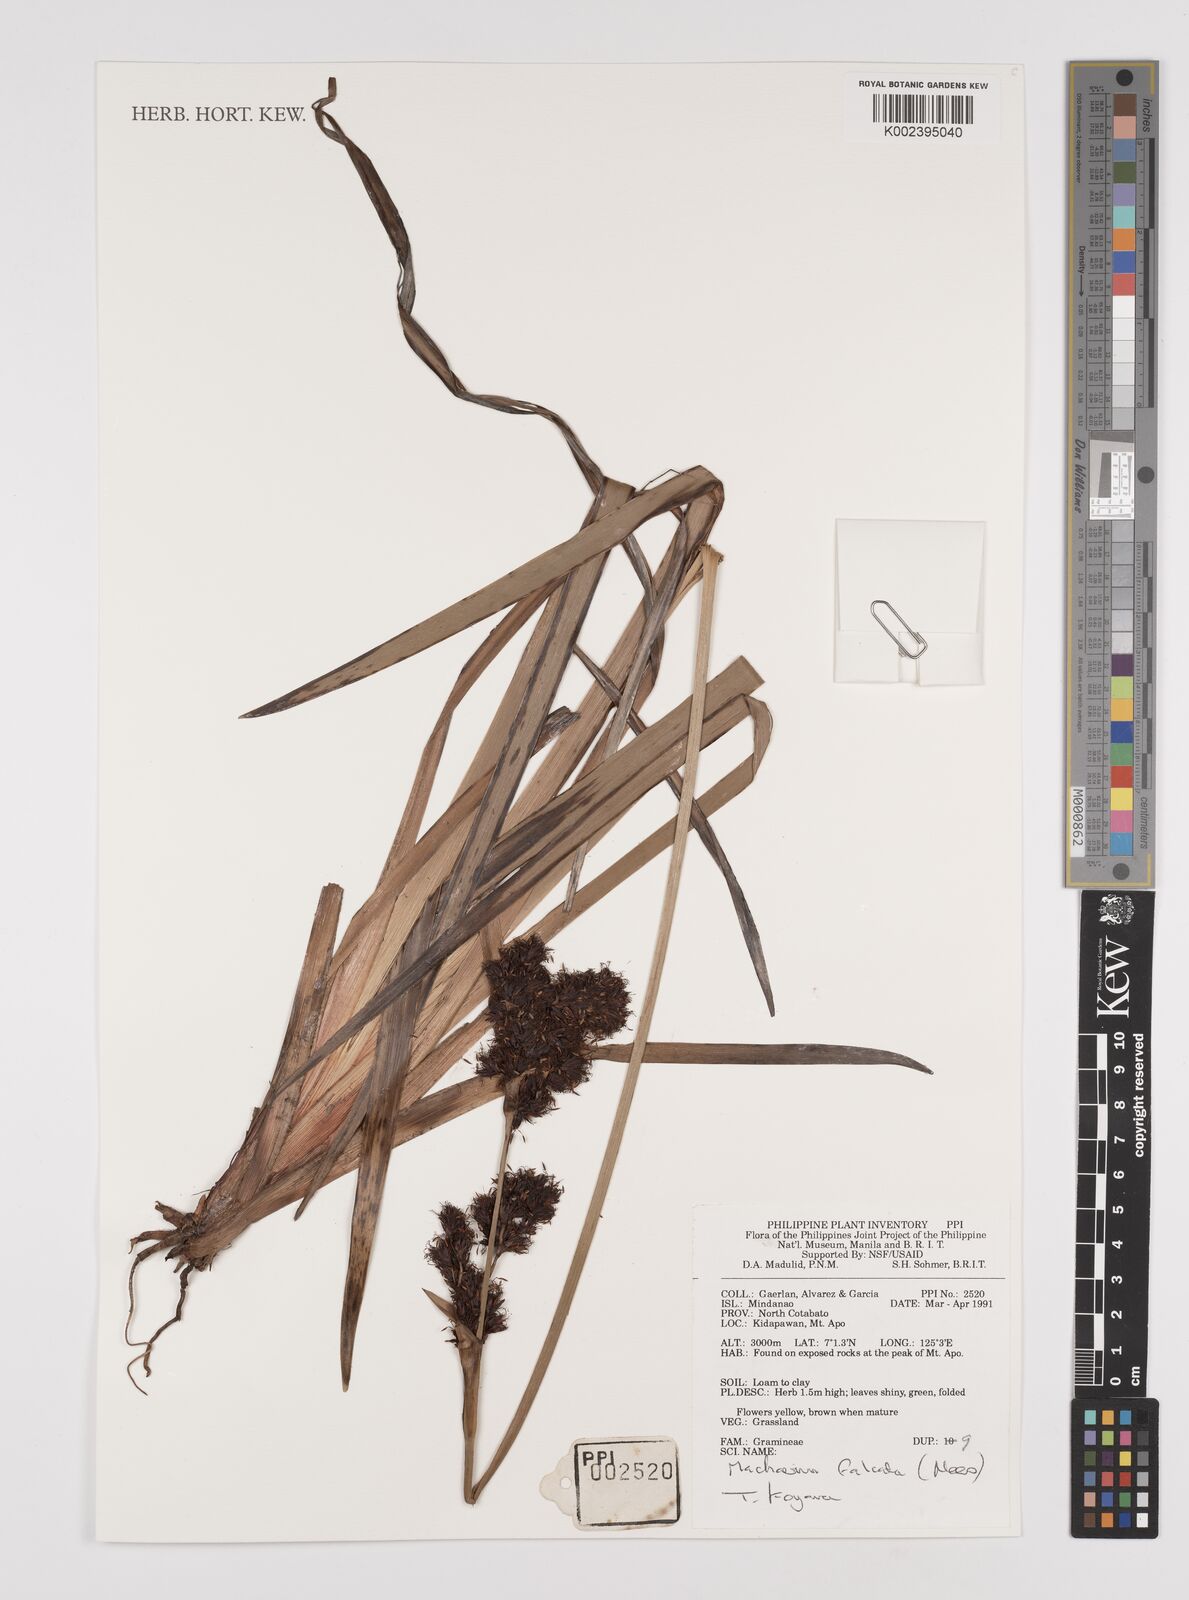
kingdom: Plantae
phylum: Tracheophyta
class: Liliopsida
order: Poales
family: Cyperaceae
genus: Machaerina
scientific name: Machaerina falcata
